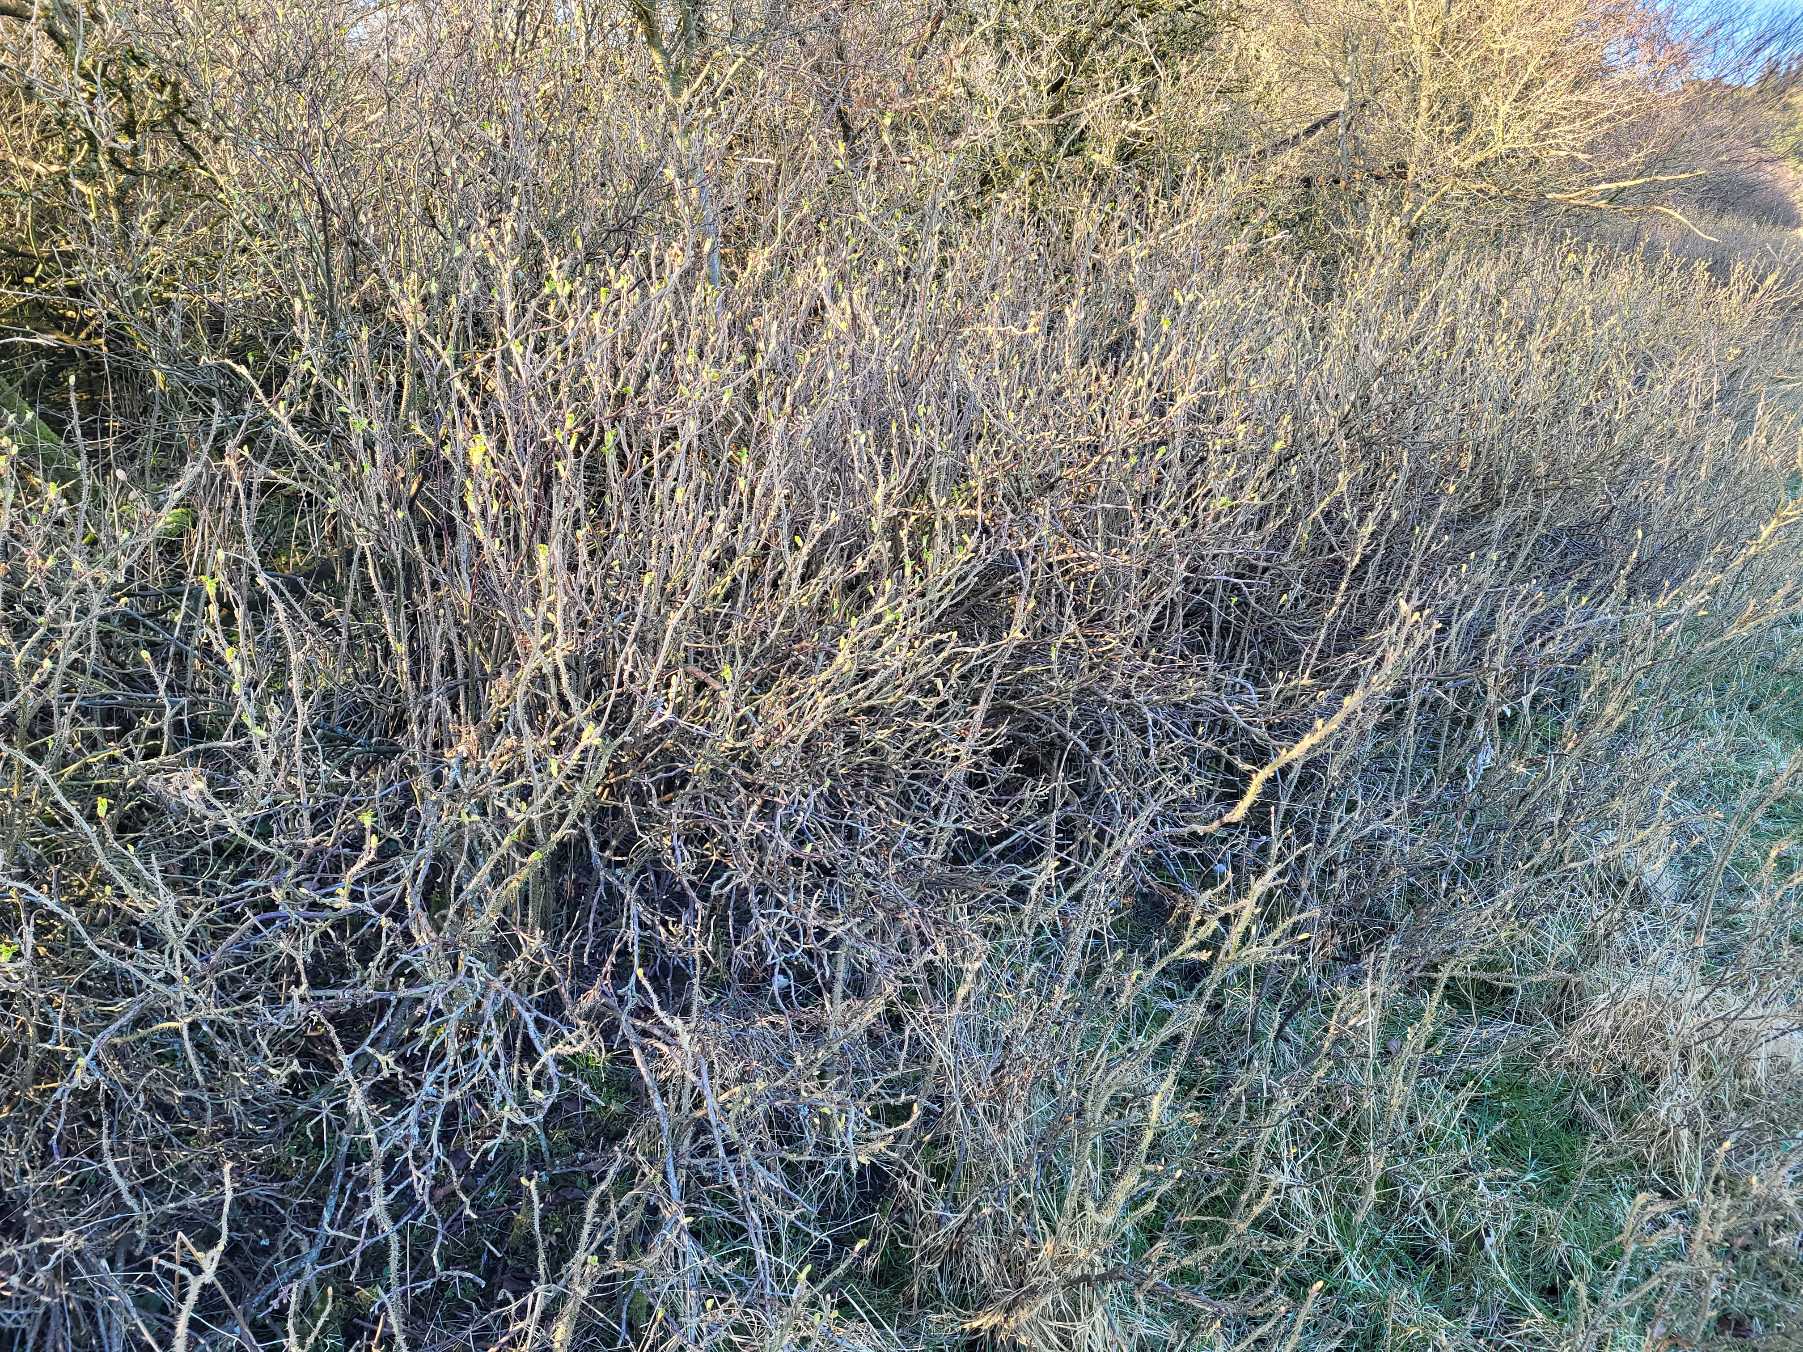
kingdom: Plantae
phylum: Tracheophyta
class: Magnoliopsida
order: Rosales
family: Rosaceae
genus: Rosa
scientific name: Rosa rugosa
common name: Rynket rose
